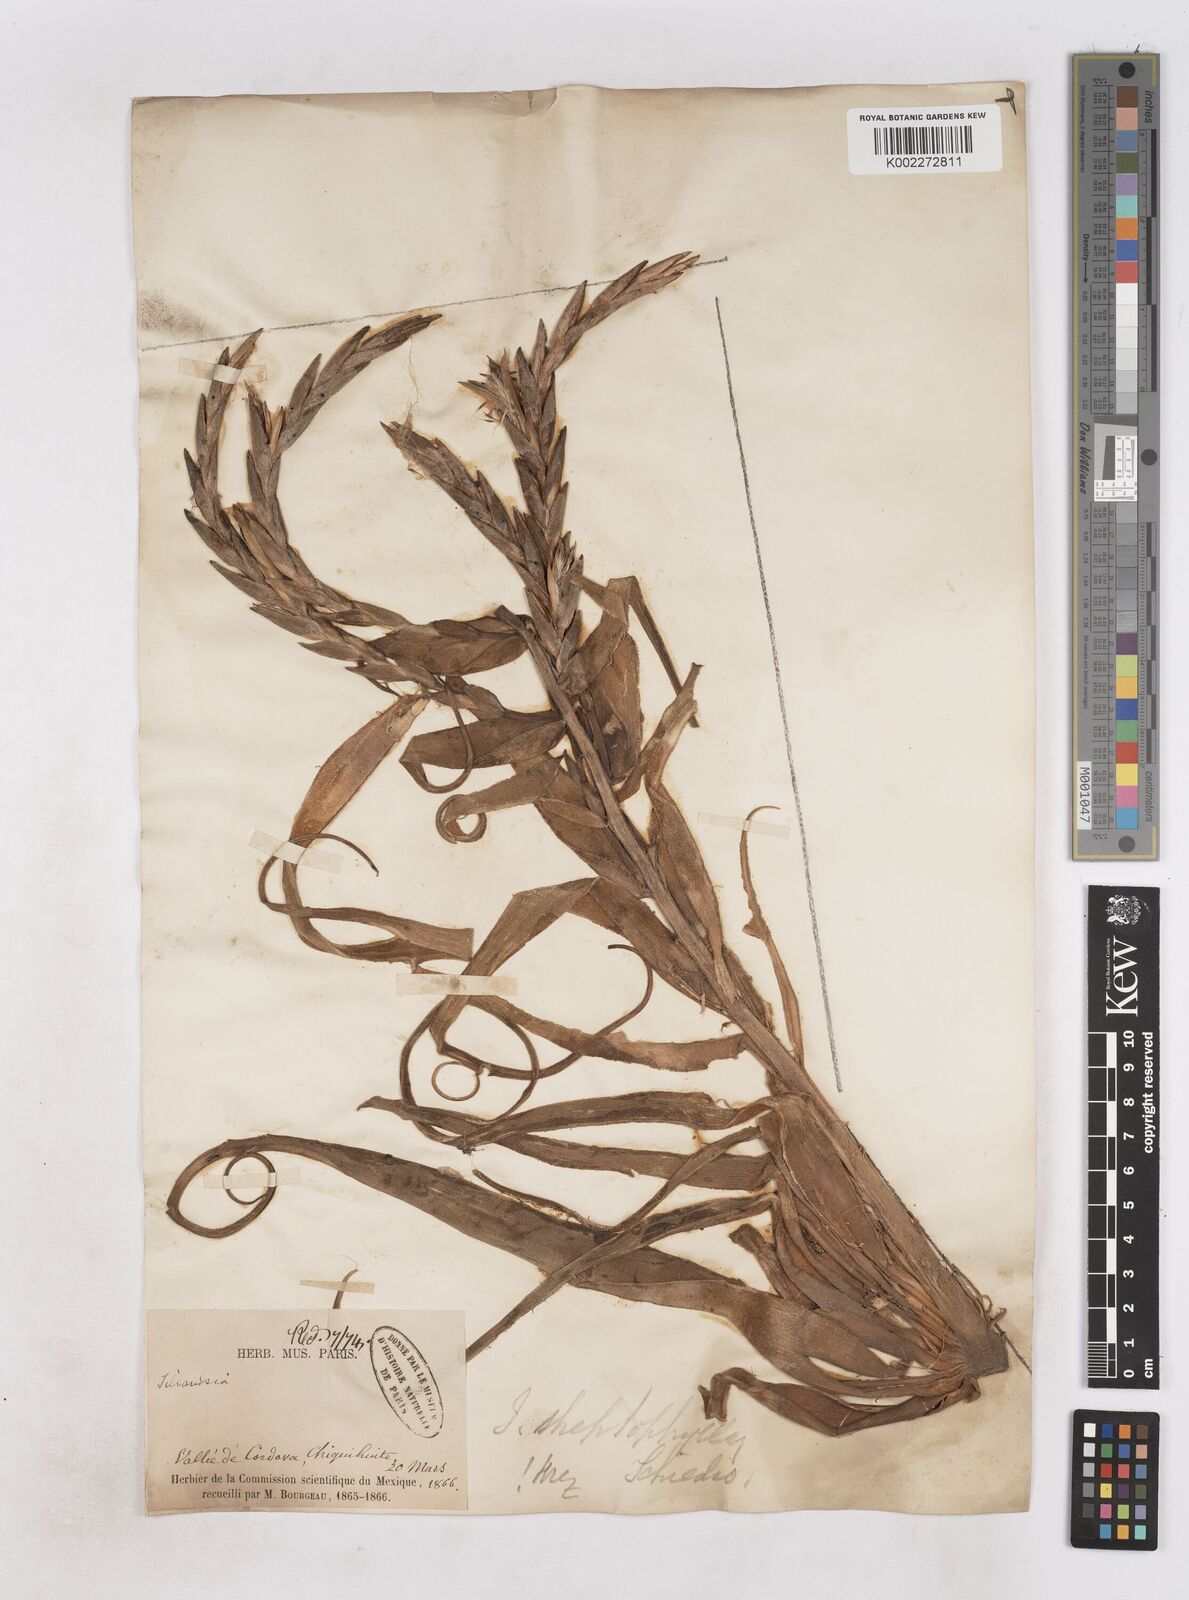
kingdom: Plantae
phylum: Tracheophyta
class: Liliopsida
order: Poales
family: Bromeliaceae
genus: Tillandsia
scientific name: Tillandsia streptophylla
